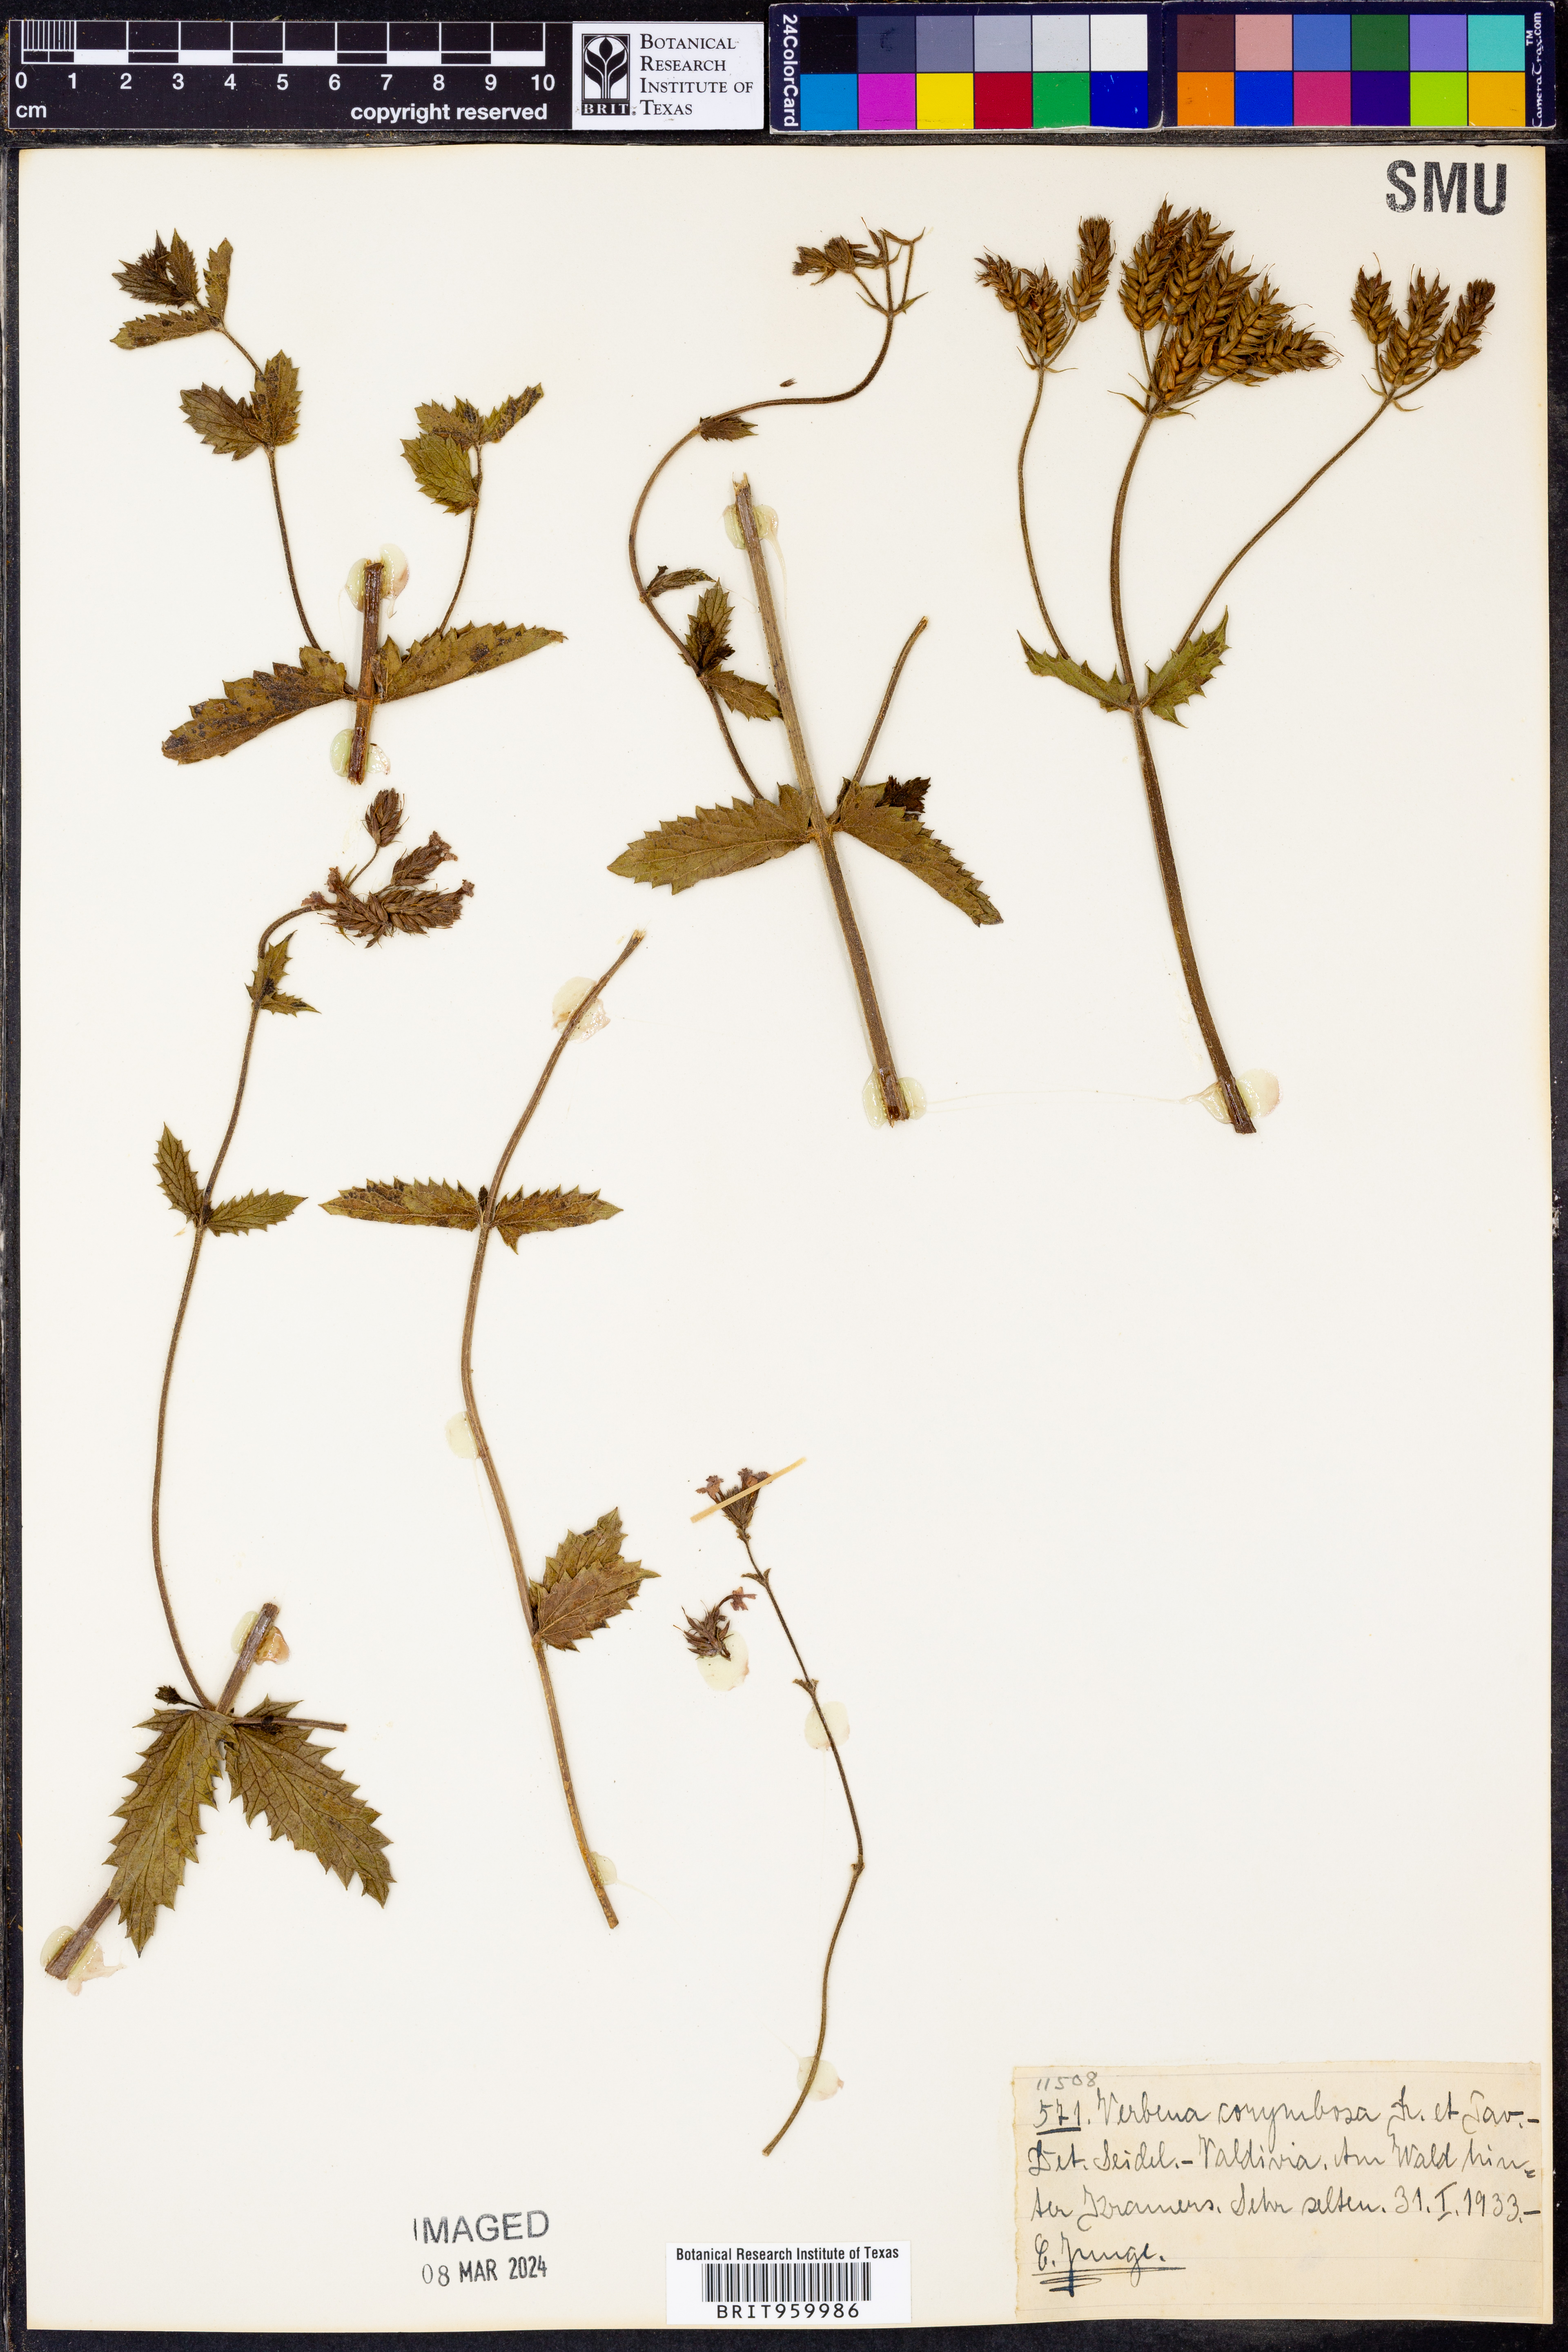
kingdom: Plantae
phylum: Tracheophyta
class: Magnoliopsida
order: Lamiales
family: Verbenaceae
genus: Verbena
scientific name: Verbena
